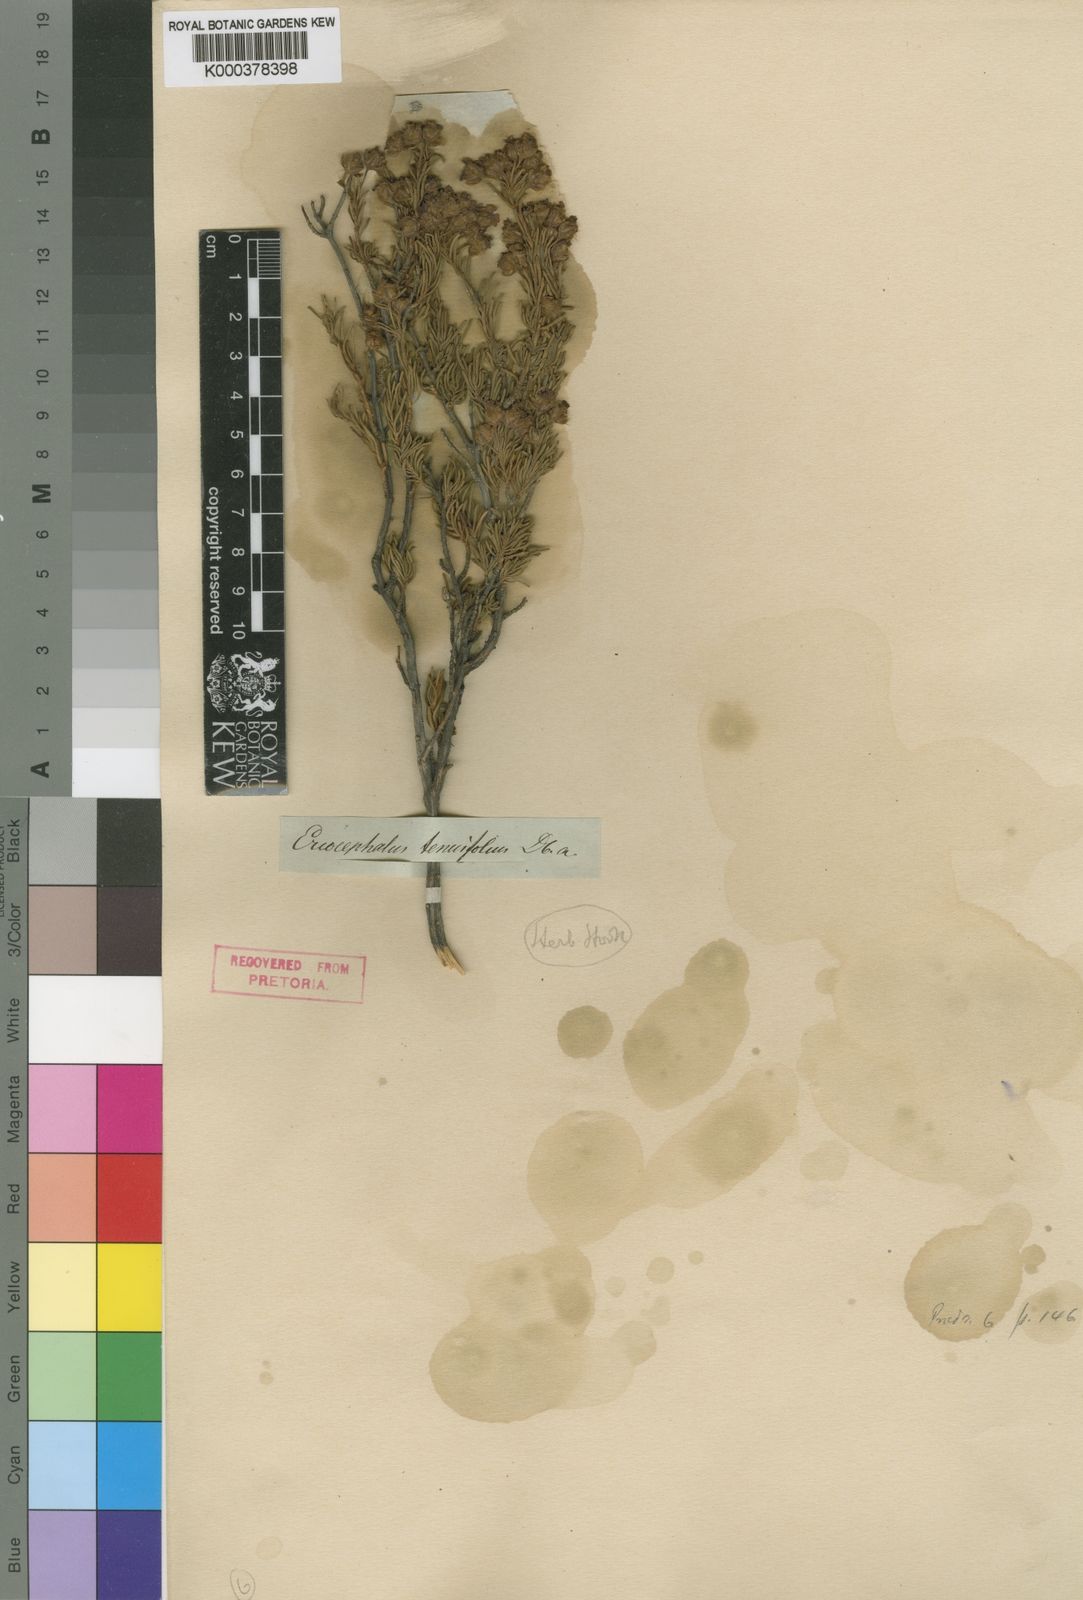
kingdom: Plantae
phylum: Tracheophyta
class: Magnoliopsida
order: Asterales
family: Asteraceae
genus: Eriocephalus
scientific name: Eriocephalus tenuifolius
